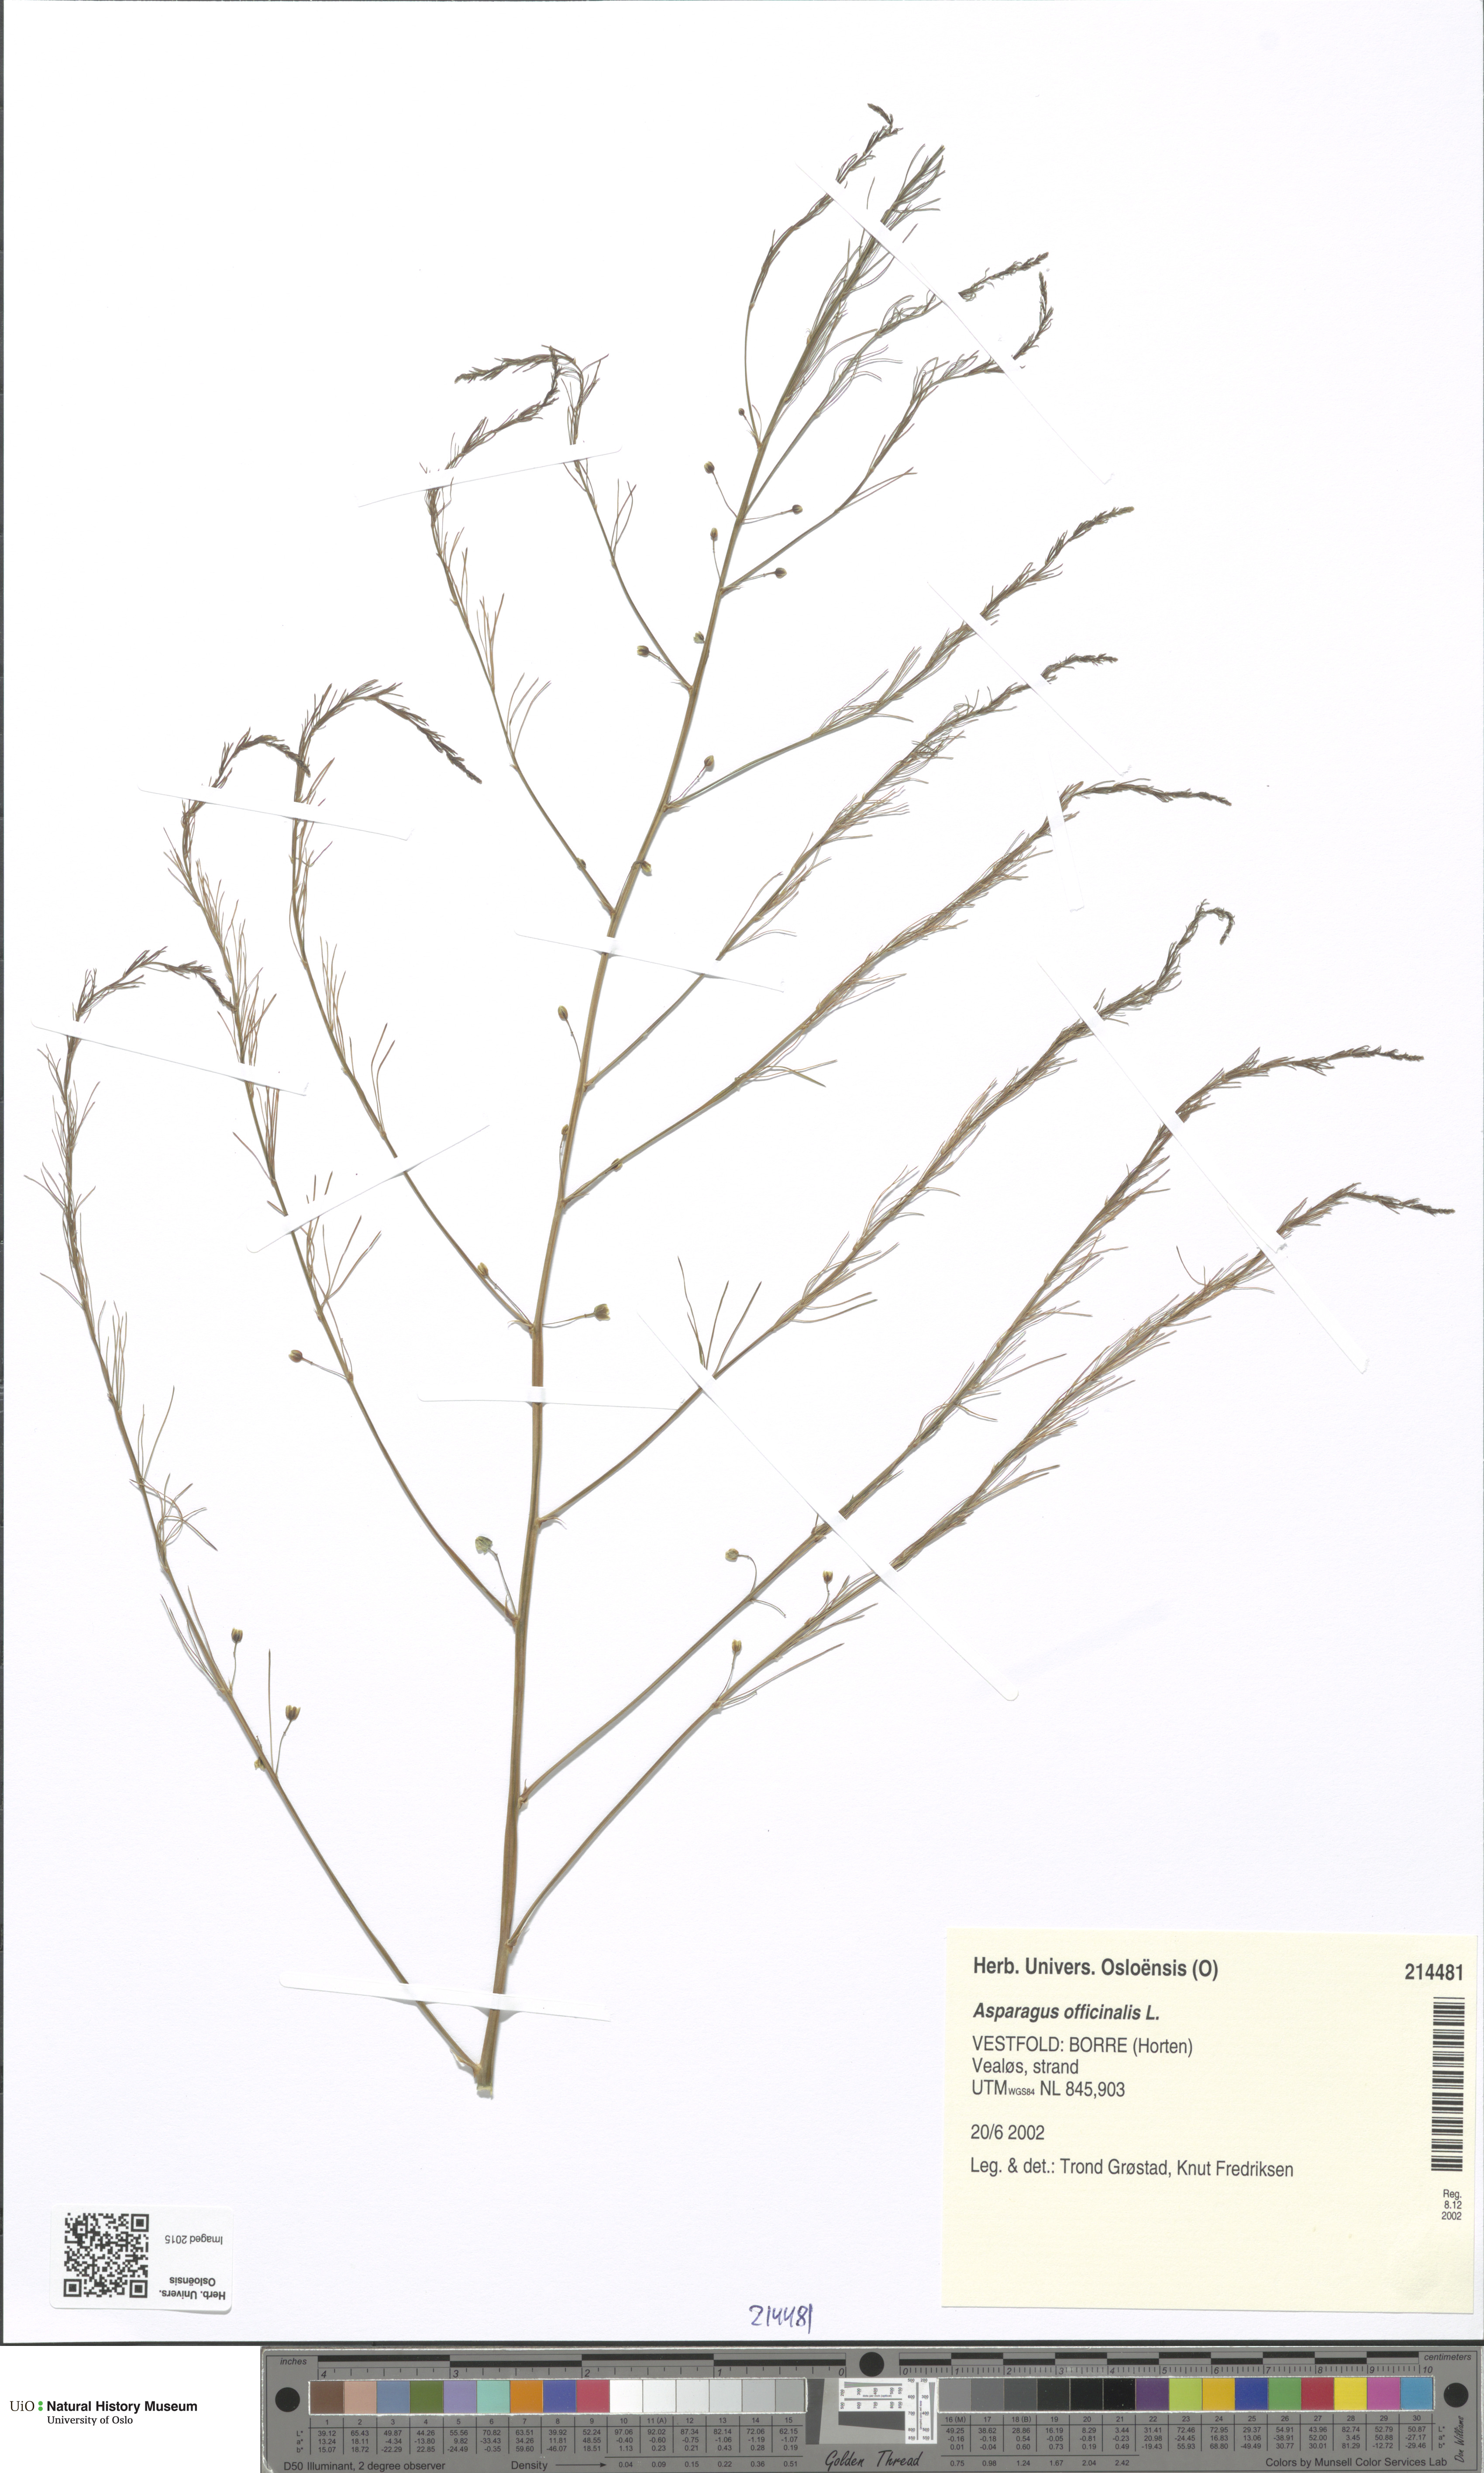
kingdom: Plantae
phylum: Tracheophyta
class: Liliopsida
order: Asparagales
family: Asparagaceae
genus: Asparagus
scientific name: Asparagus officinalis
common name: Garden asparagus
